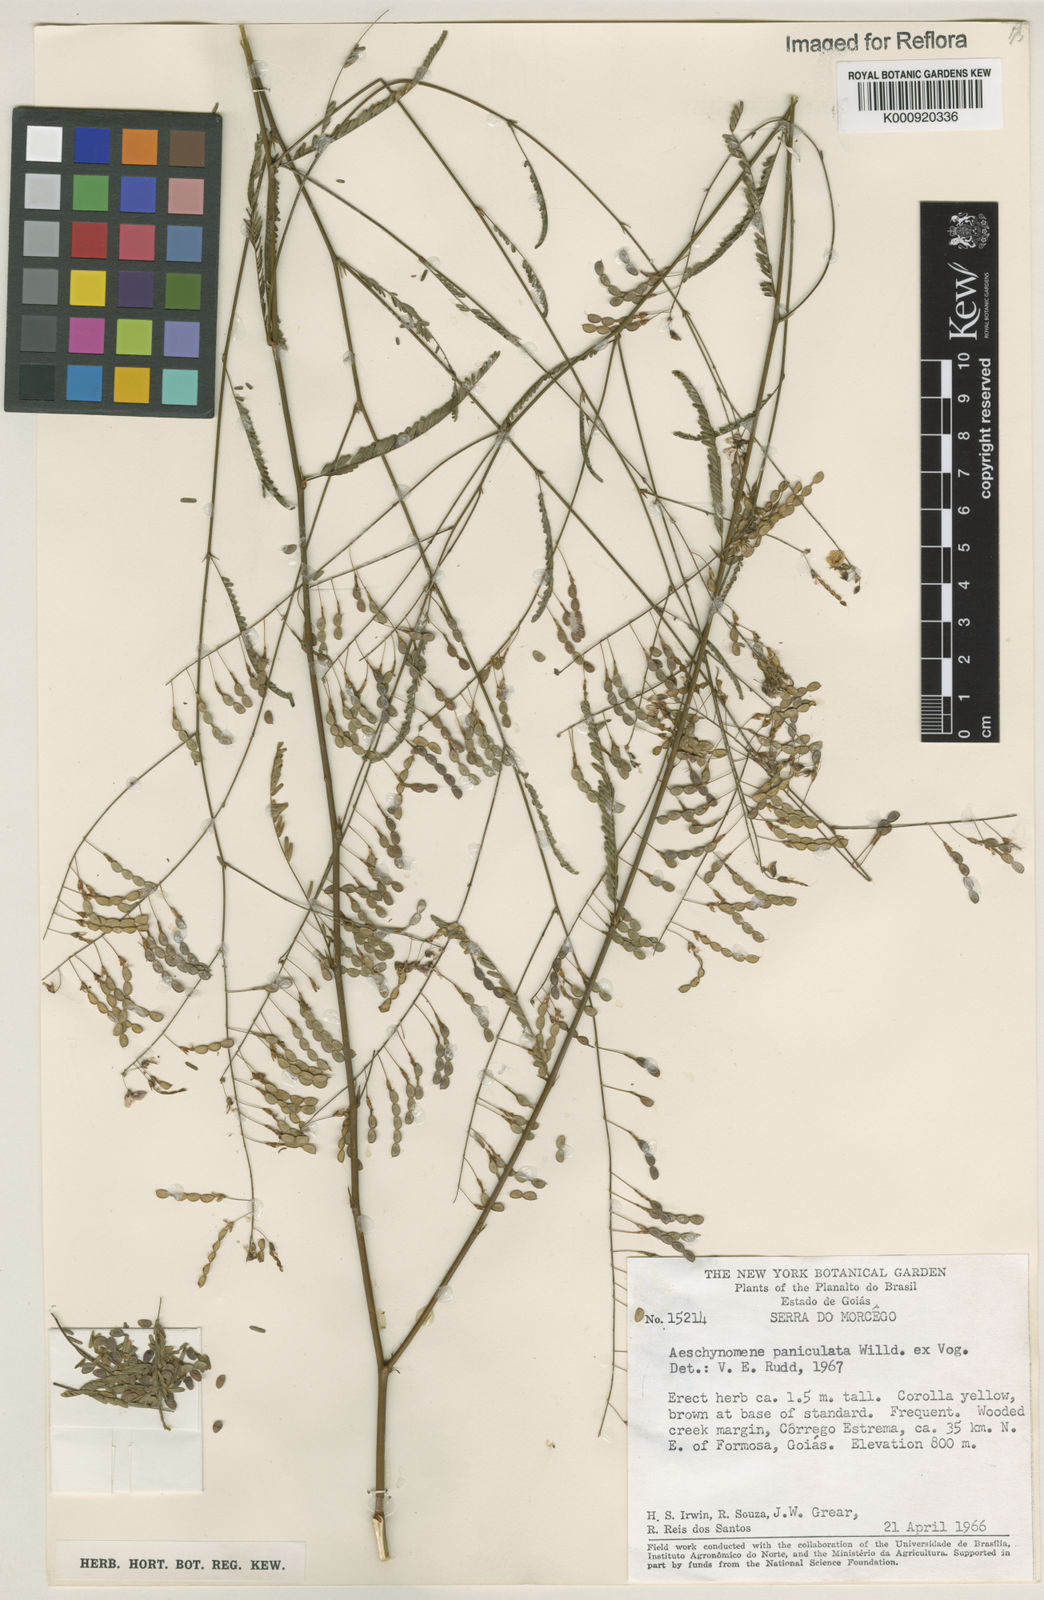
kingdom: Plantae
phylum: Tracheophyta
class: Magnoliopsida
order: Fabales
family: Fabaceae
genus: Ctenodon
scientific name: Ctenodon paniculatus
